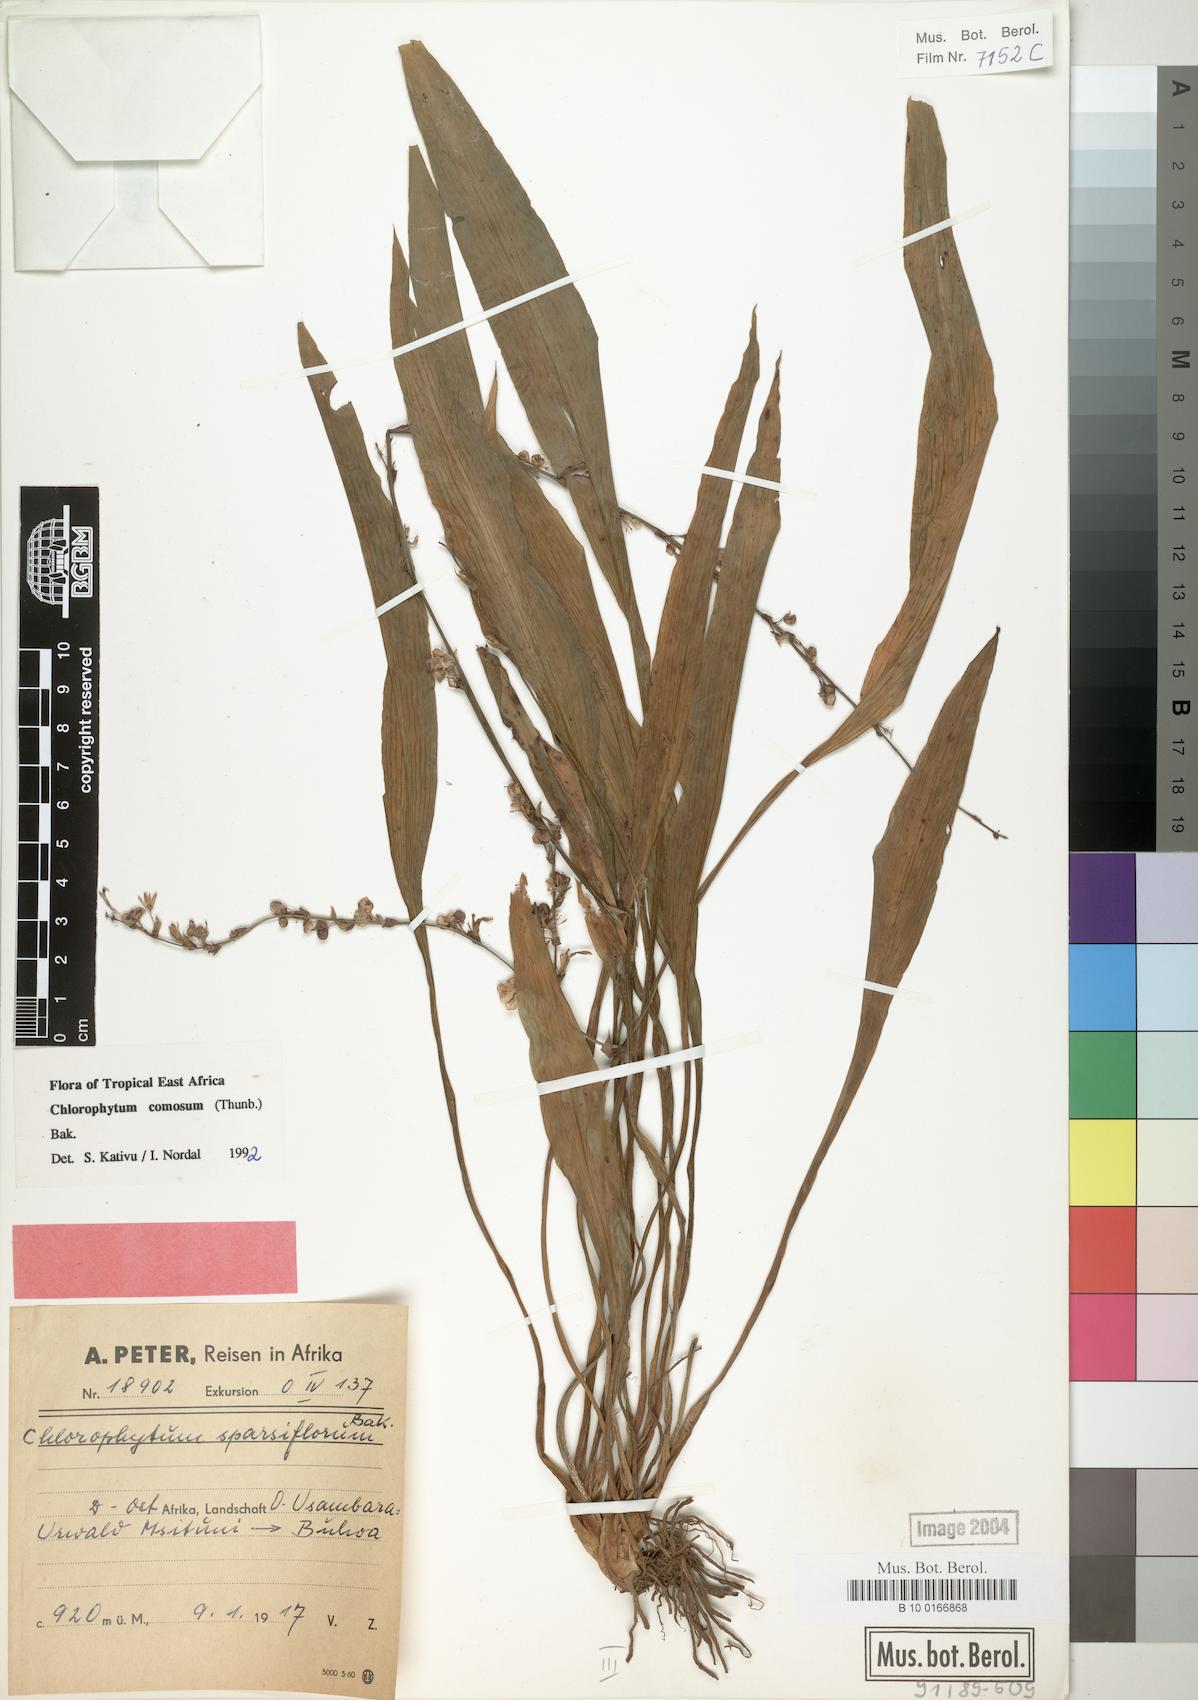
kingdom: Plantae
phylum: Tracheophyta
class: Liliopsida
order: Asparagales
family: Asparagaceae
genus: Chlorophytum
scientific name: Chlorophytum comosum
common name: Spider plant
